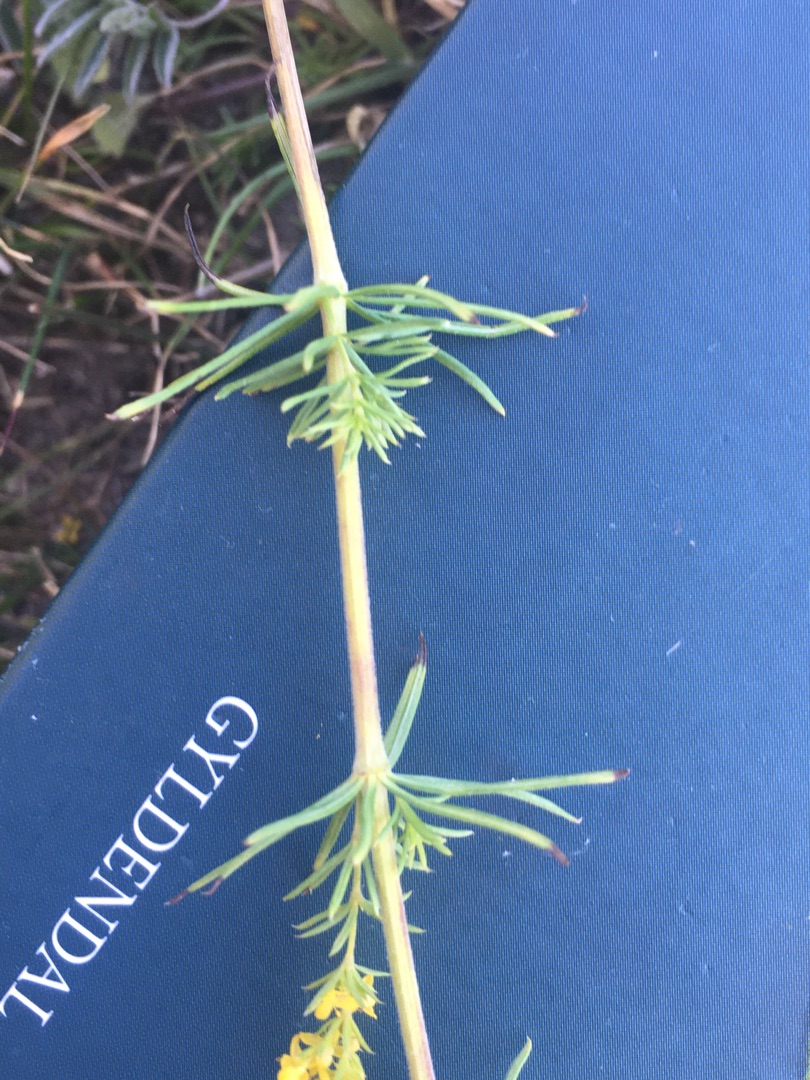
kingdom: Plantae
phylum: Tracheophyta
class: Magnoliopsida
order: Gentianales
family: Rubiaceae
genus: Galium
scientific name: Galium verum
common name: Gul snerre
